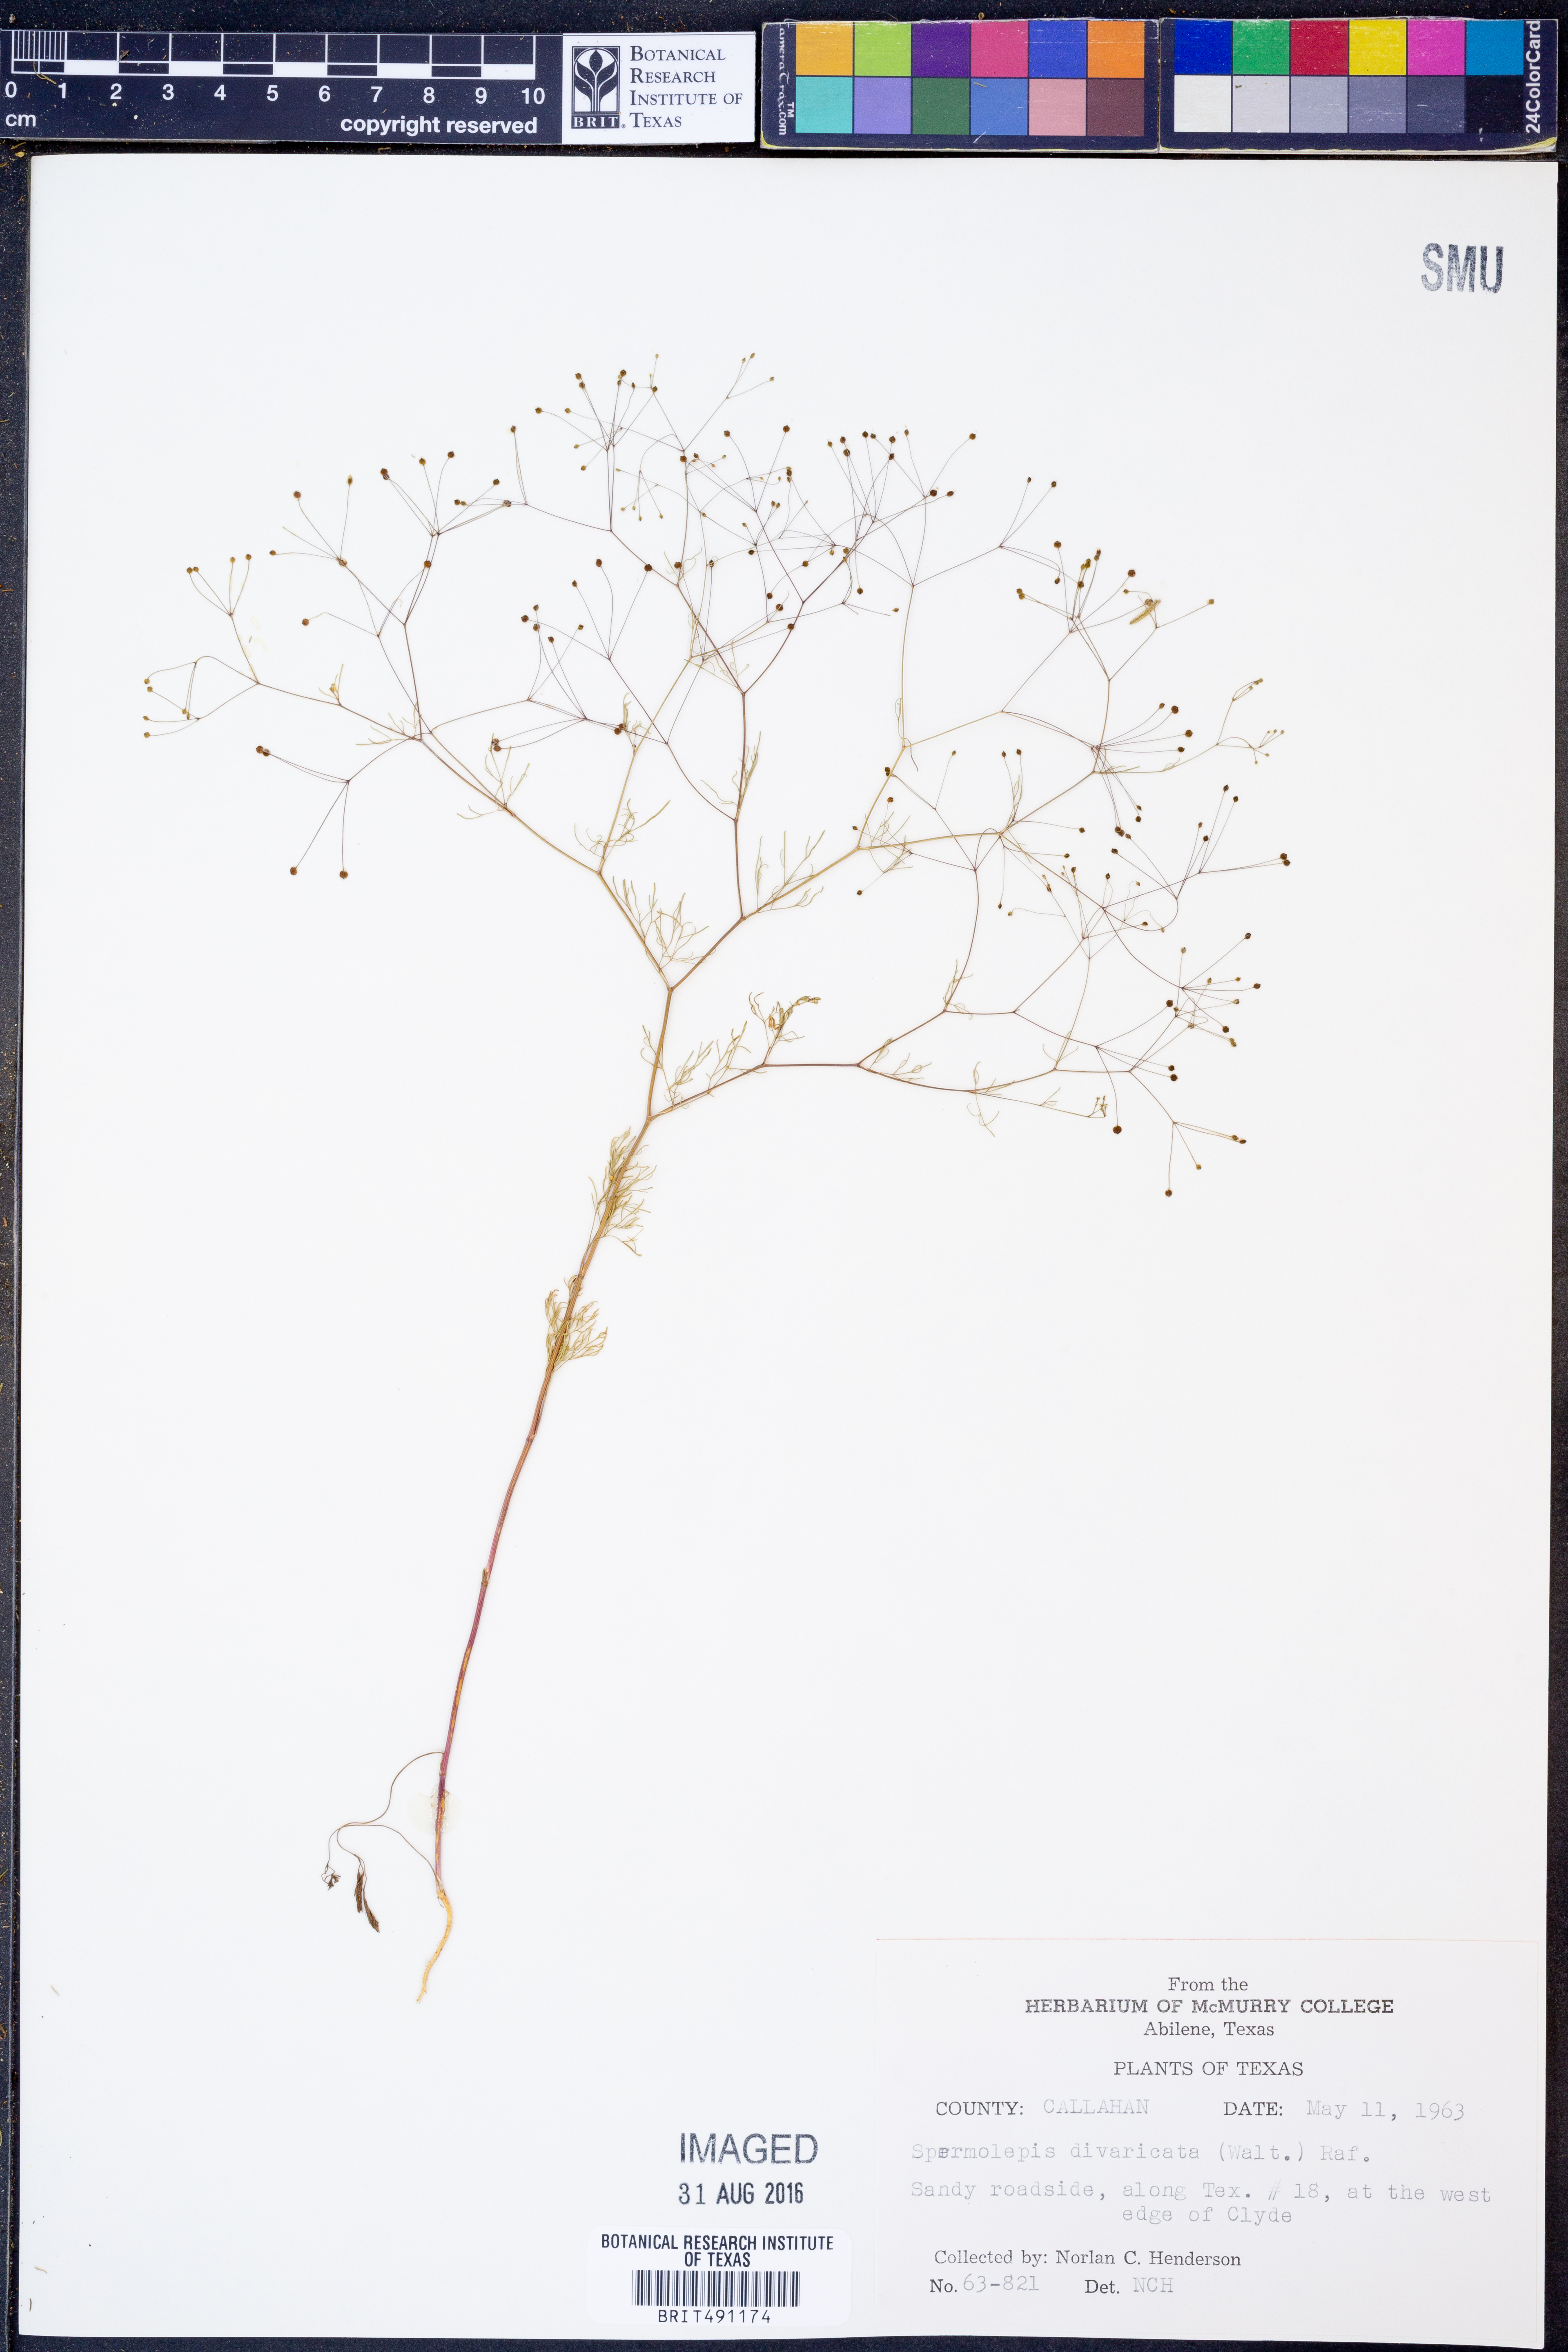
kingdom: Plantae
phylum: Tracheophyta
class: Magnoliopsida
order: Apiales
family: Apiaceae
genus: Spermolepis
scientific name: Spermolepis divaricata
